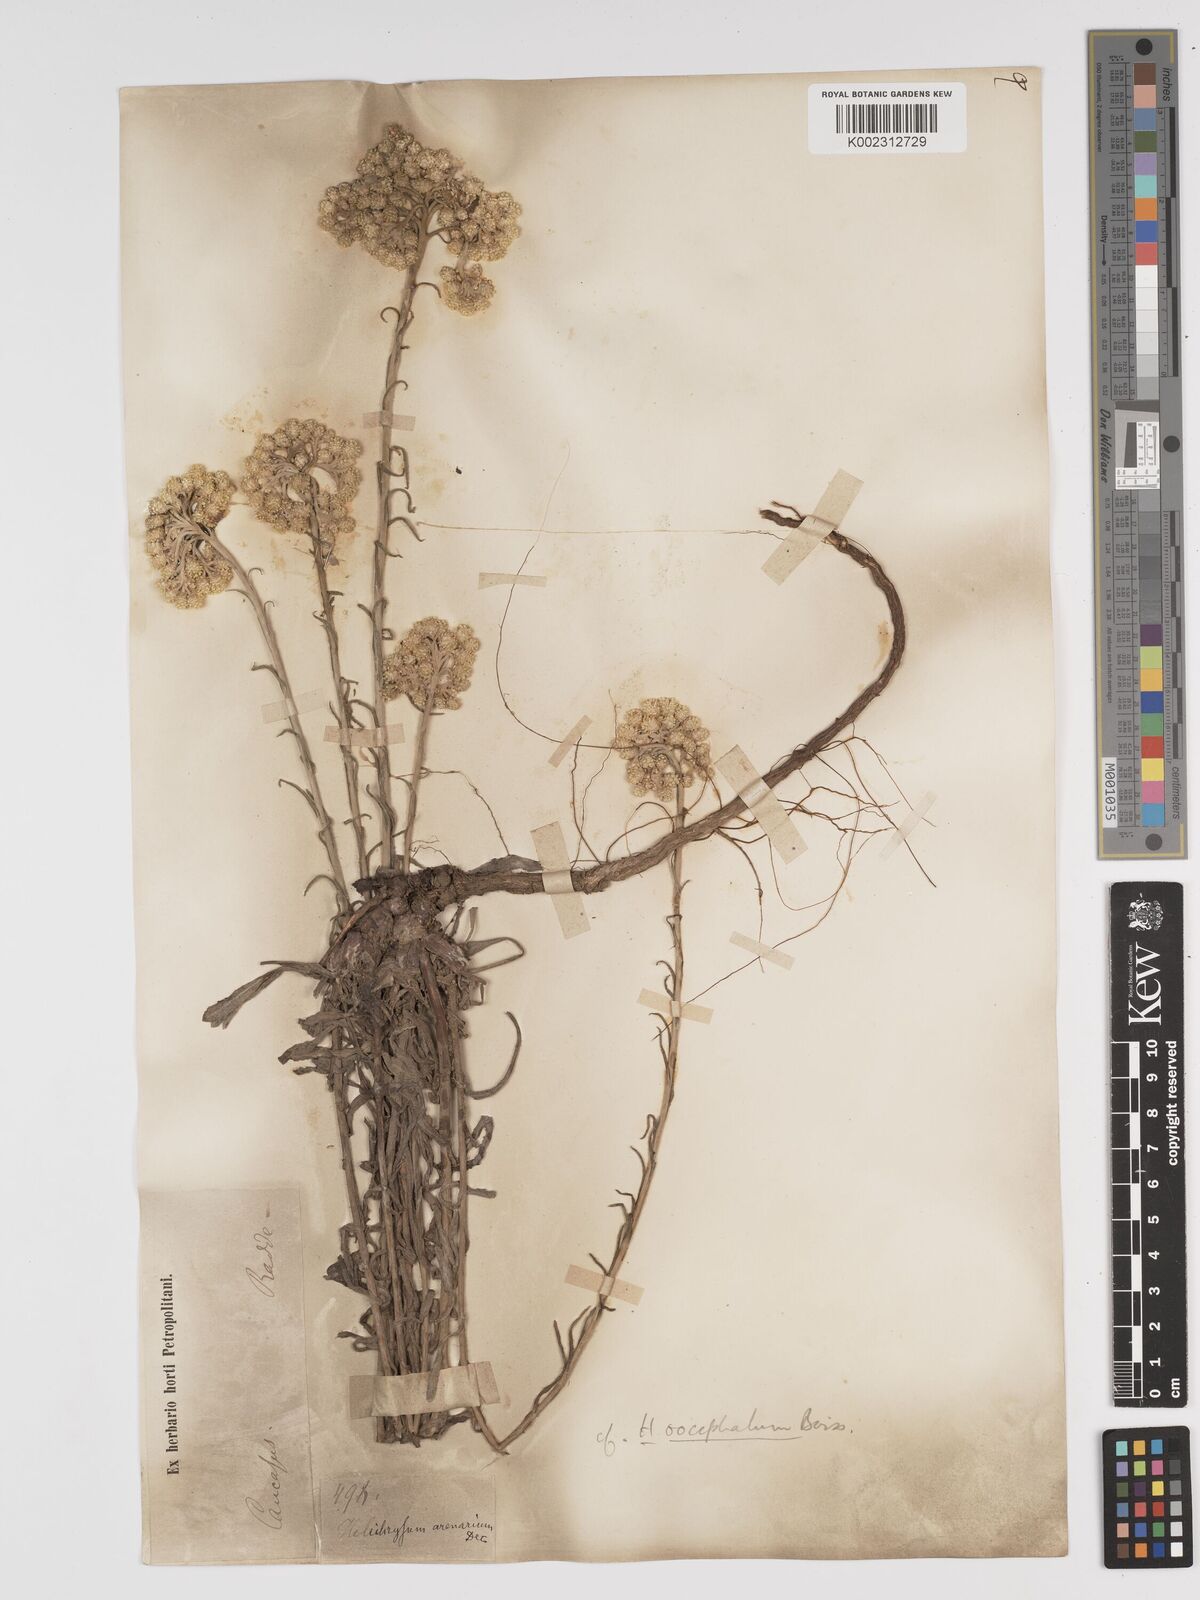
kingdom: Plantae
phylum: Tracheophyta
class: Magnoliopsida
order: Asterales
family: Asteraceae
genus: Helichrysum
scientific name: Helichrysum oocephalum
